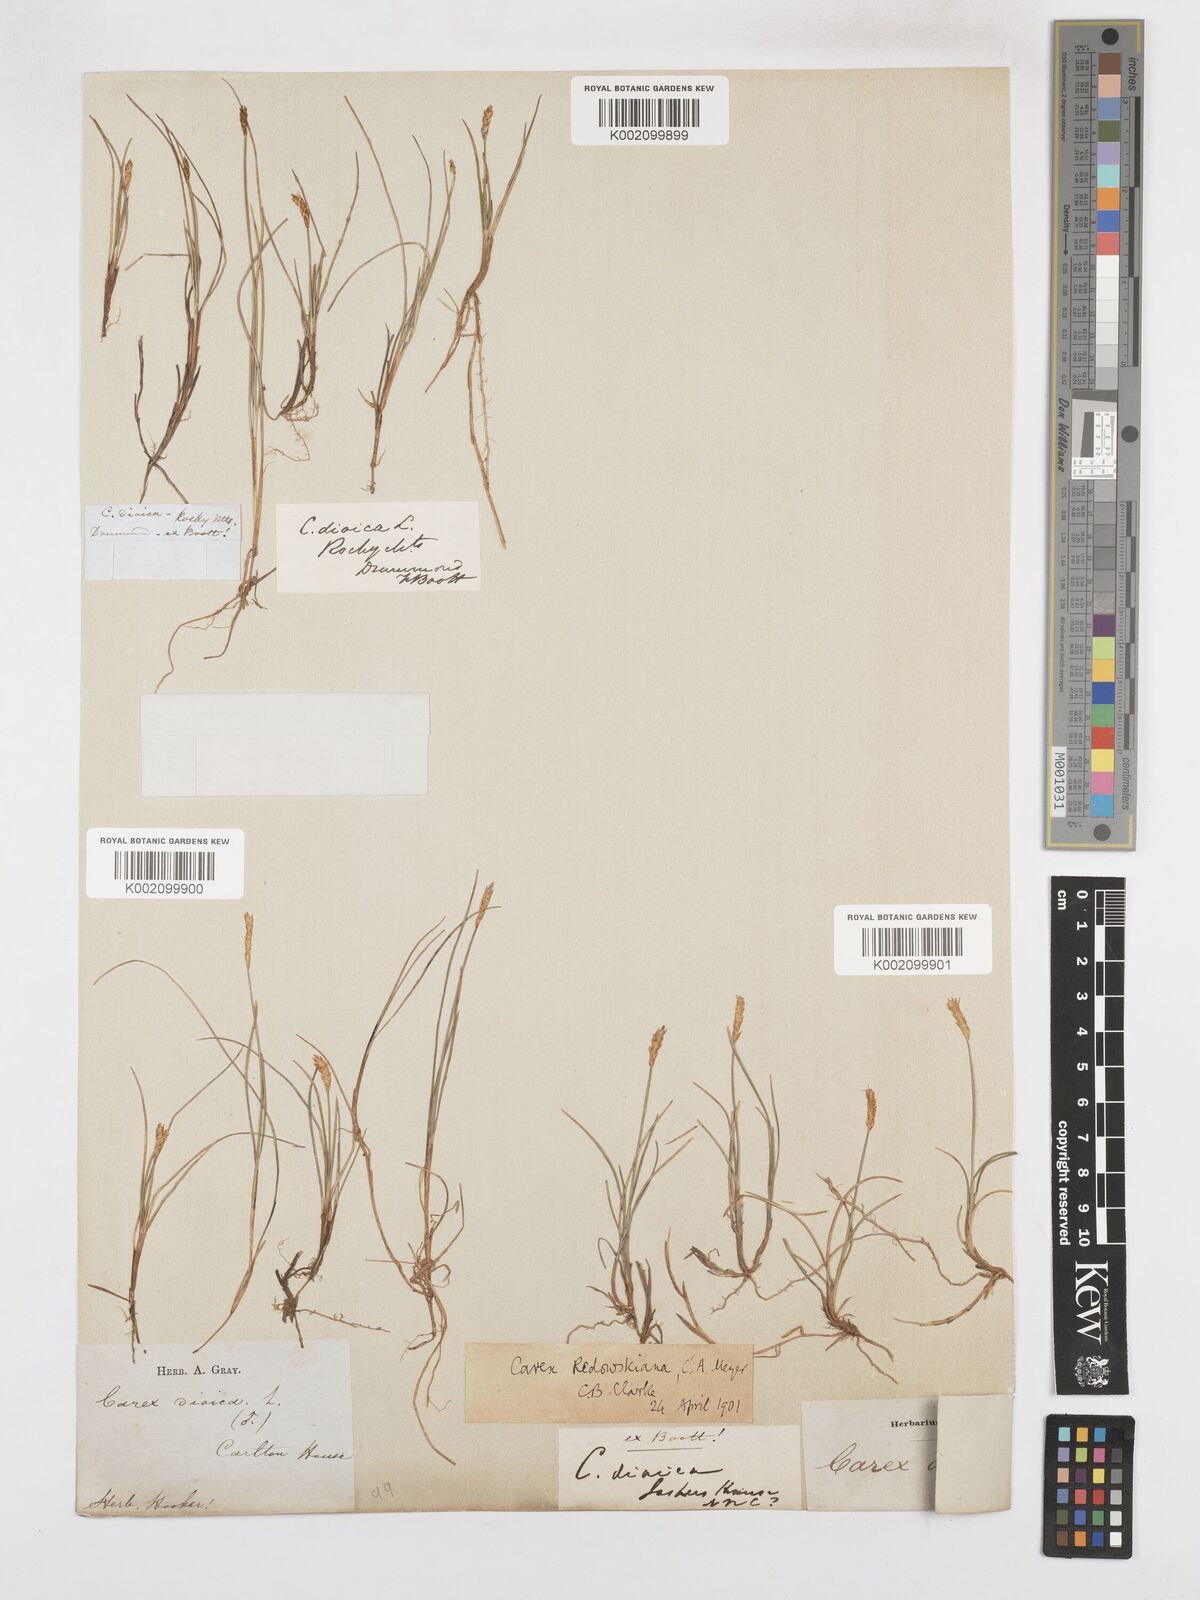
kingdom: Plantae
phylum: Tracheophyta
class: Liliopsida
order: Poales
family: Cyperaceae
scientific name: Cyperaceae
